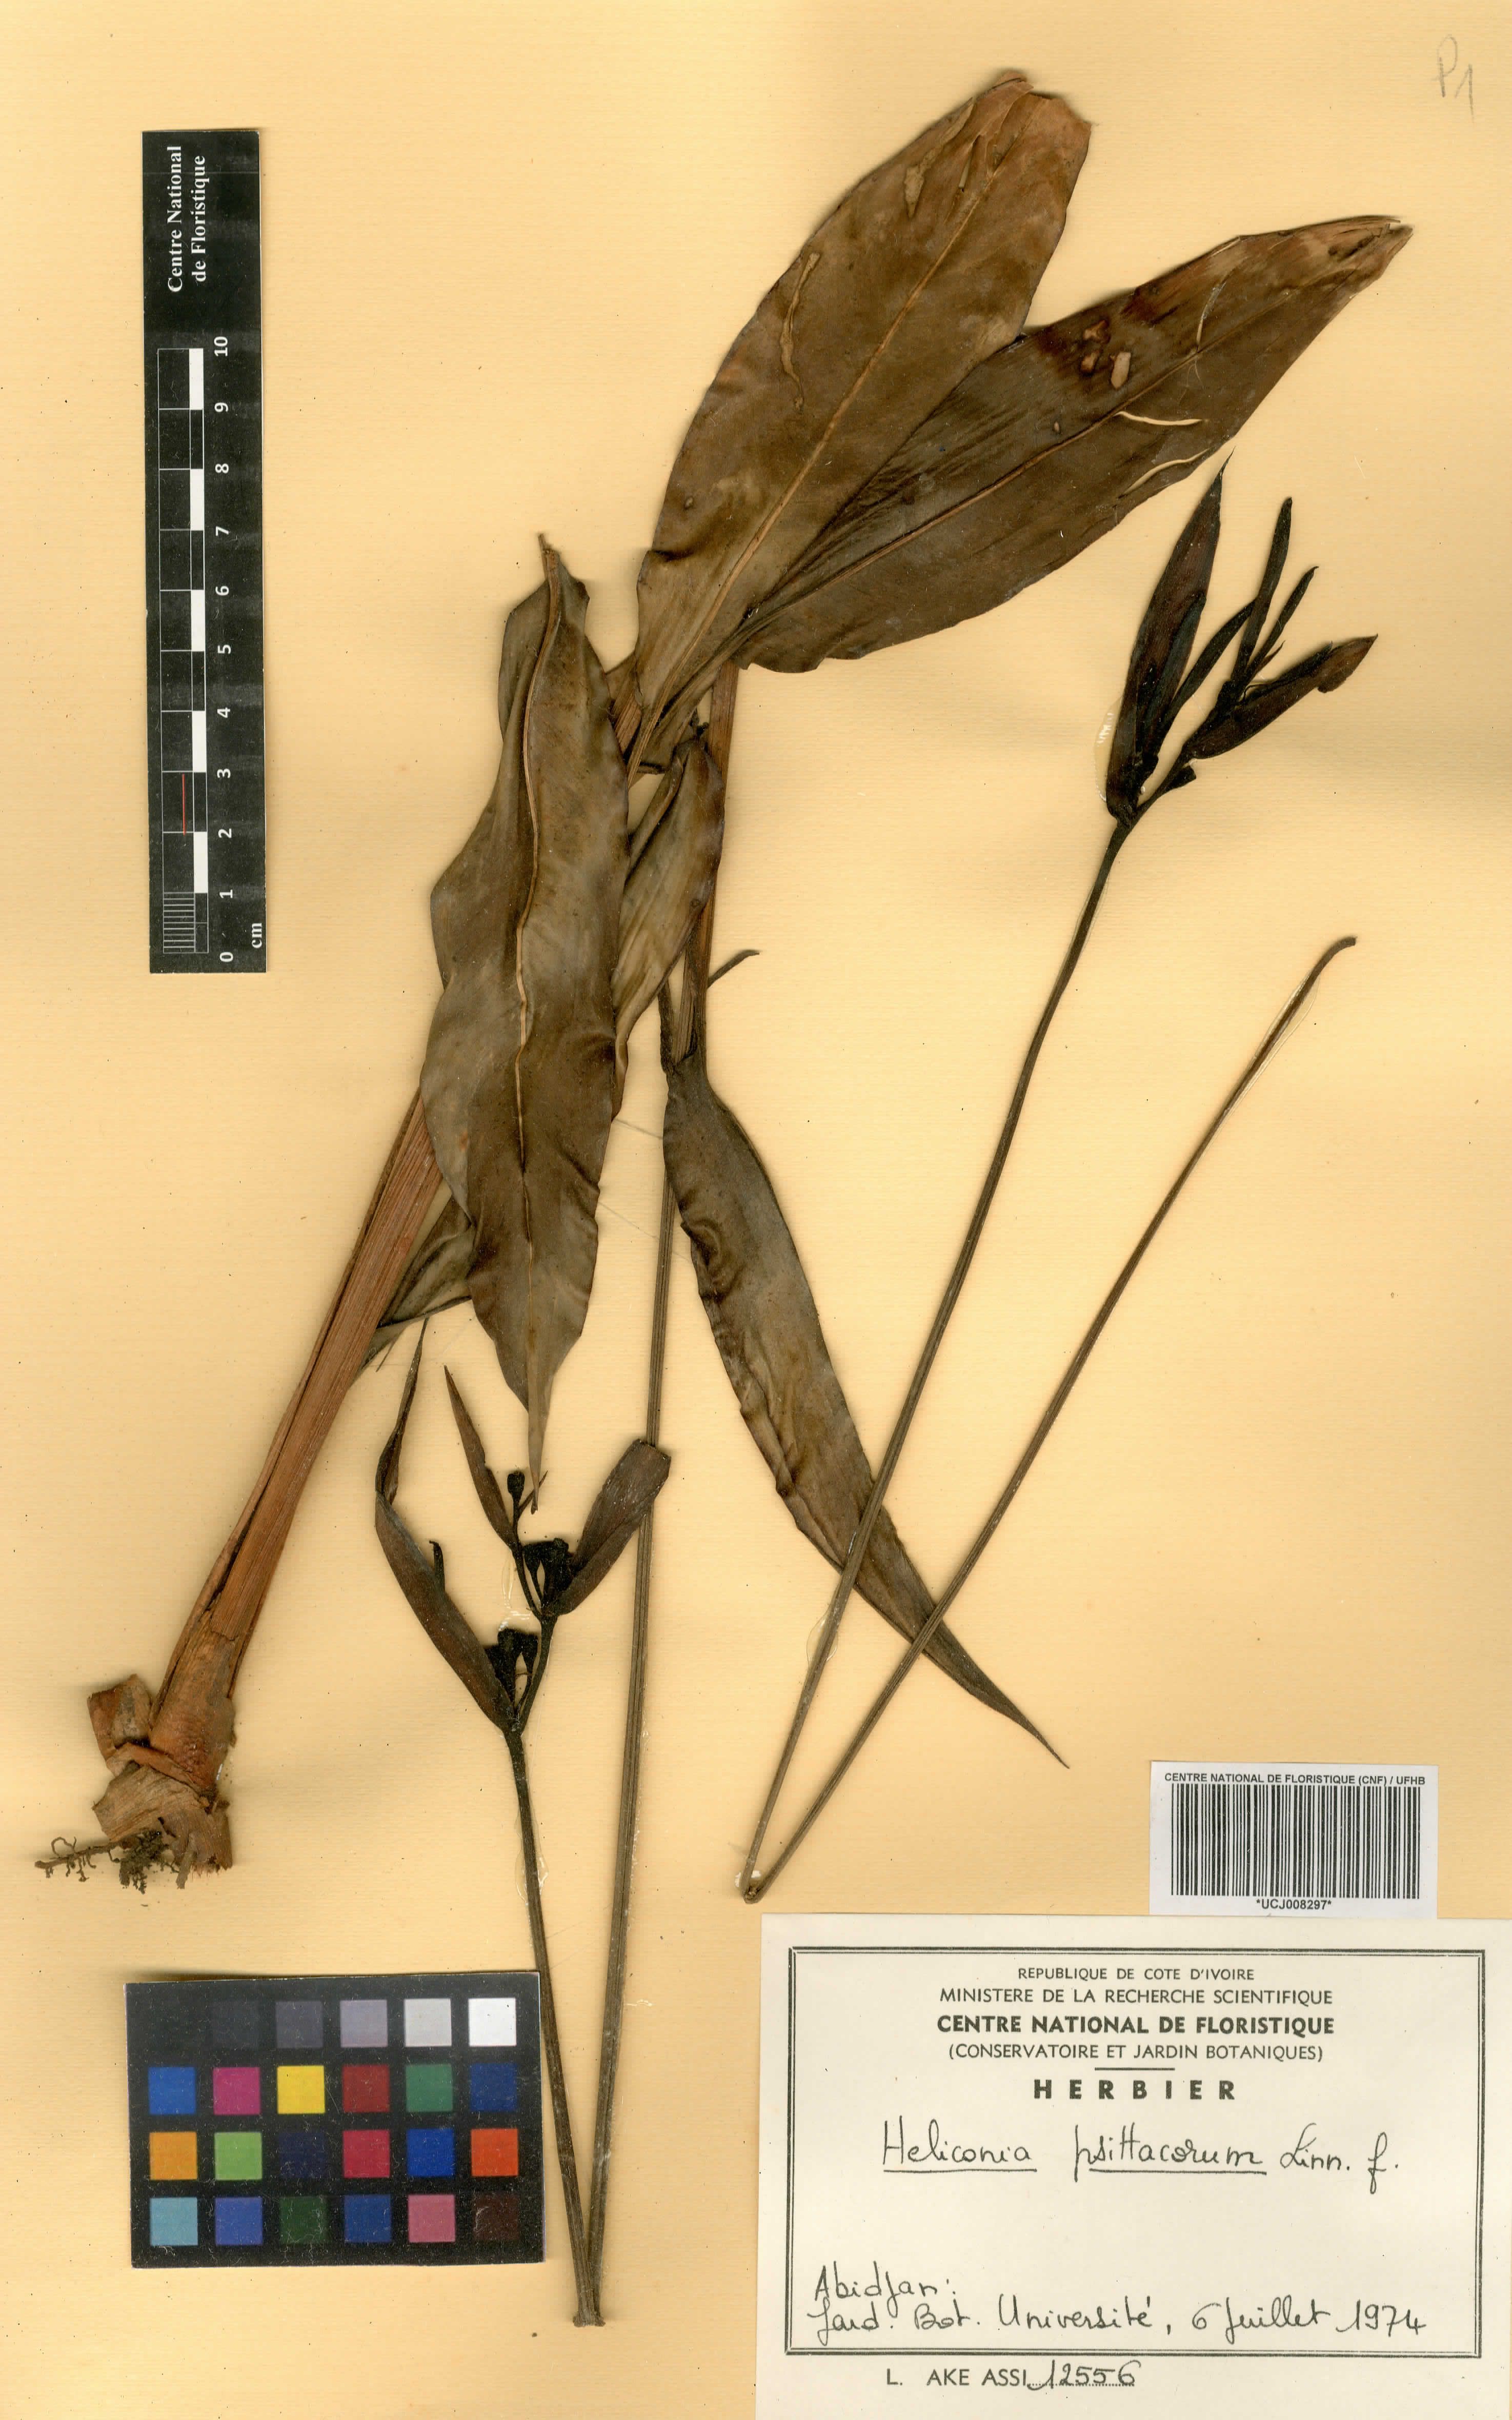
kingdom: Plantae
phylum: Tracheophyta
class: Liliopsida
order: Zingiberales
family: Heliconiaceae
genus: Heliconia
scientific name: Heliconia psittacorum
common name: Parrot's-flower
